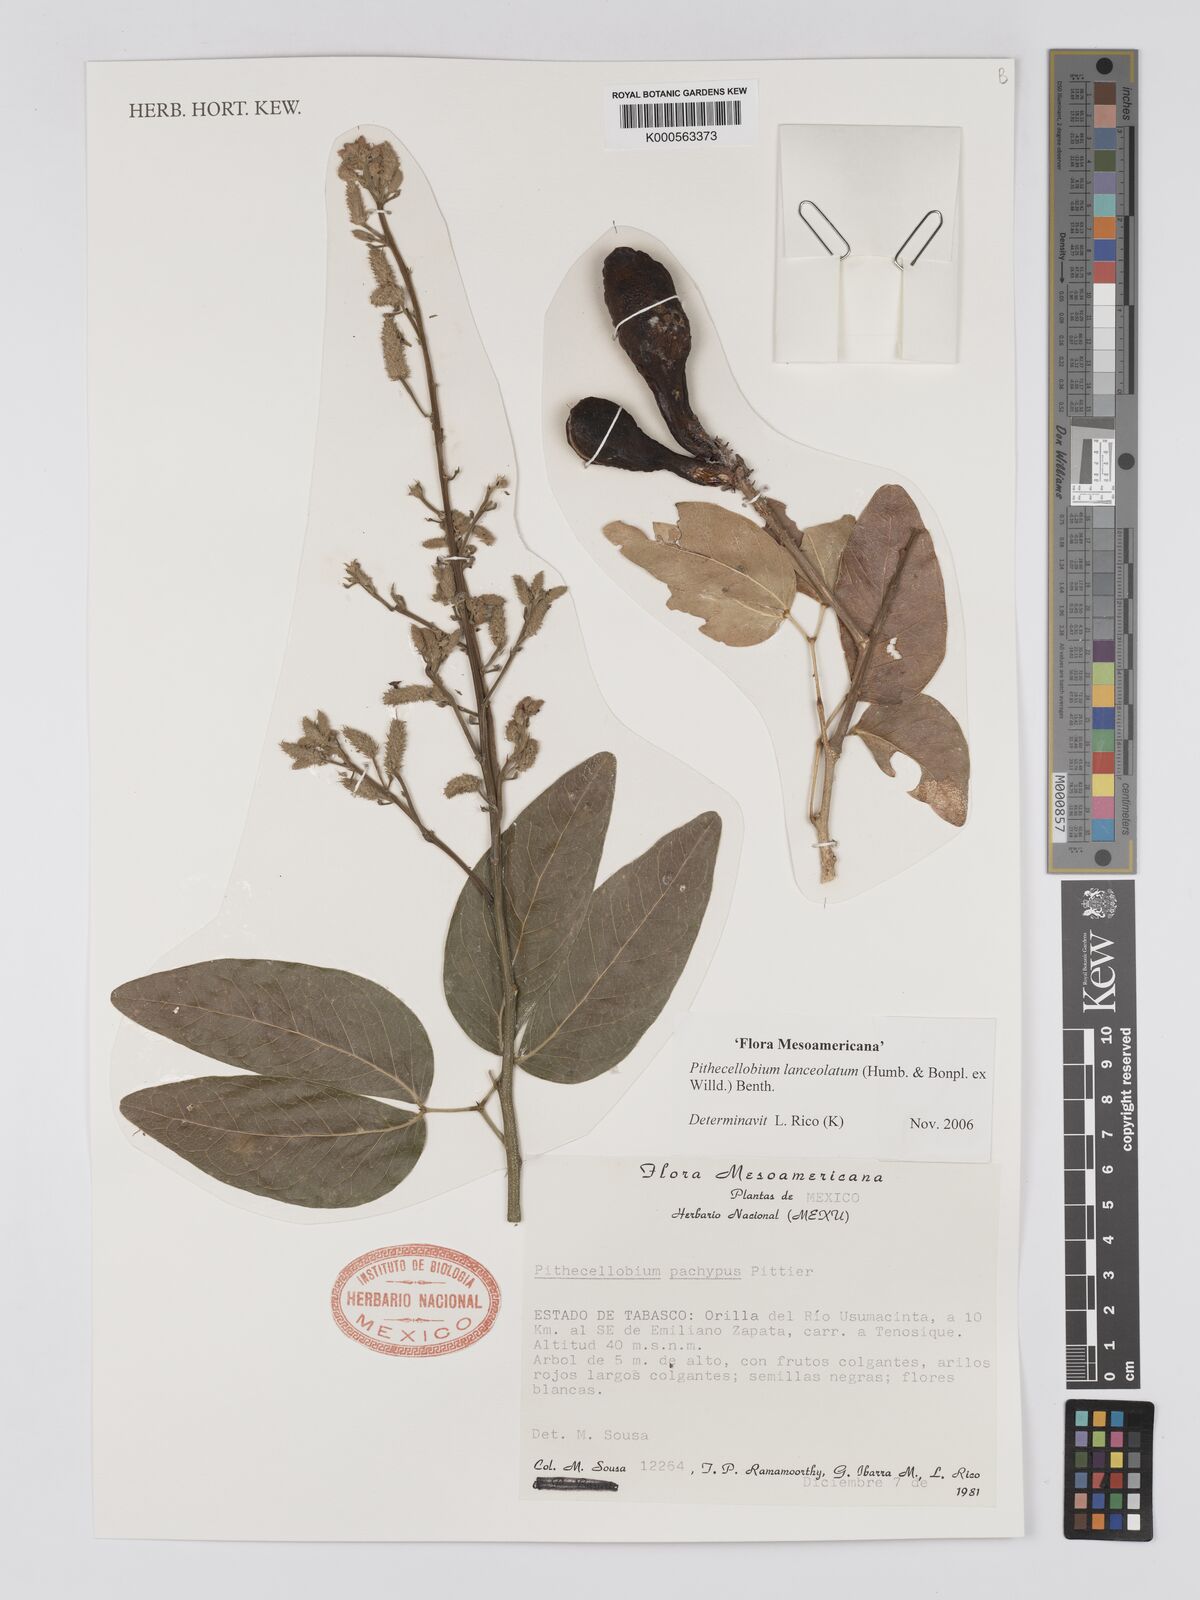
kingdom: Plantae
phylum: Tracheophyta
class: Magnoliopsida
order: Fabales
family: Fabaceae
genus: Pithecellobium
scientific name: Pithecellobium lanceolatum
